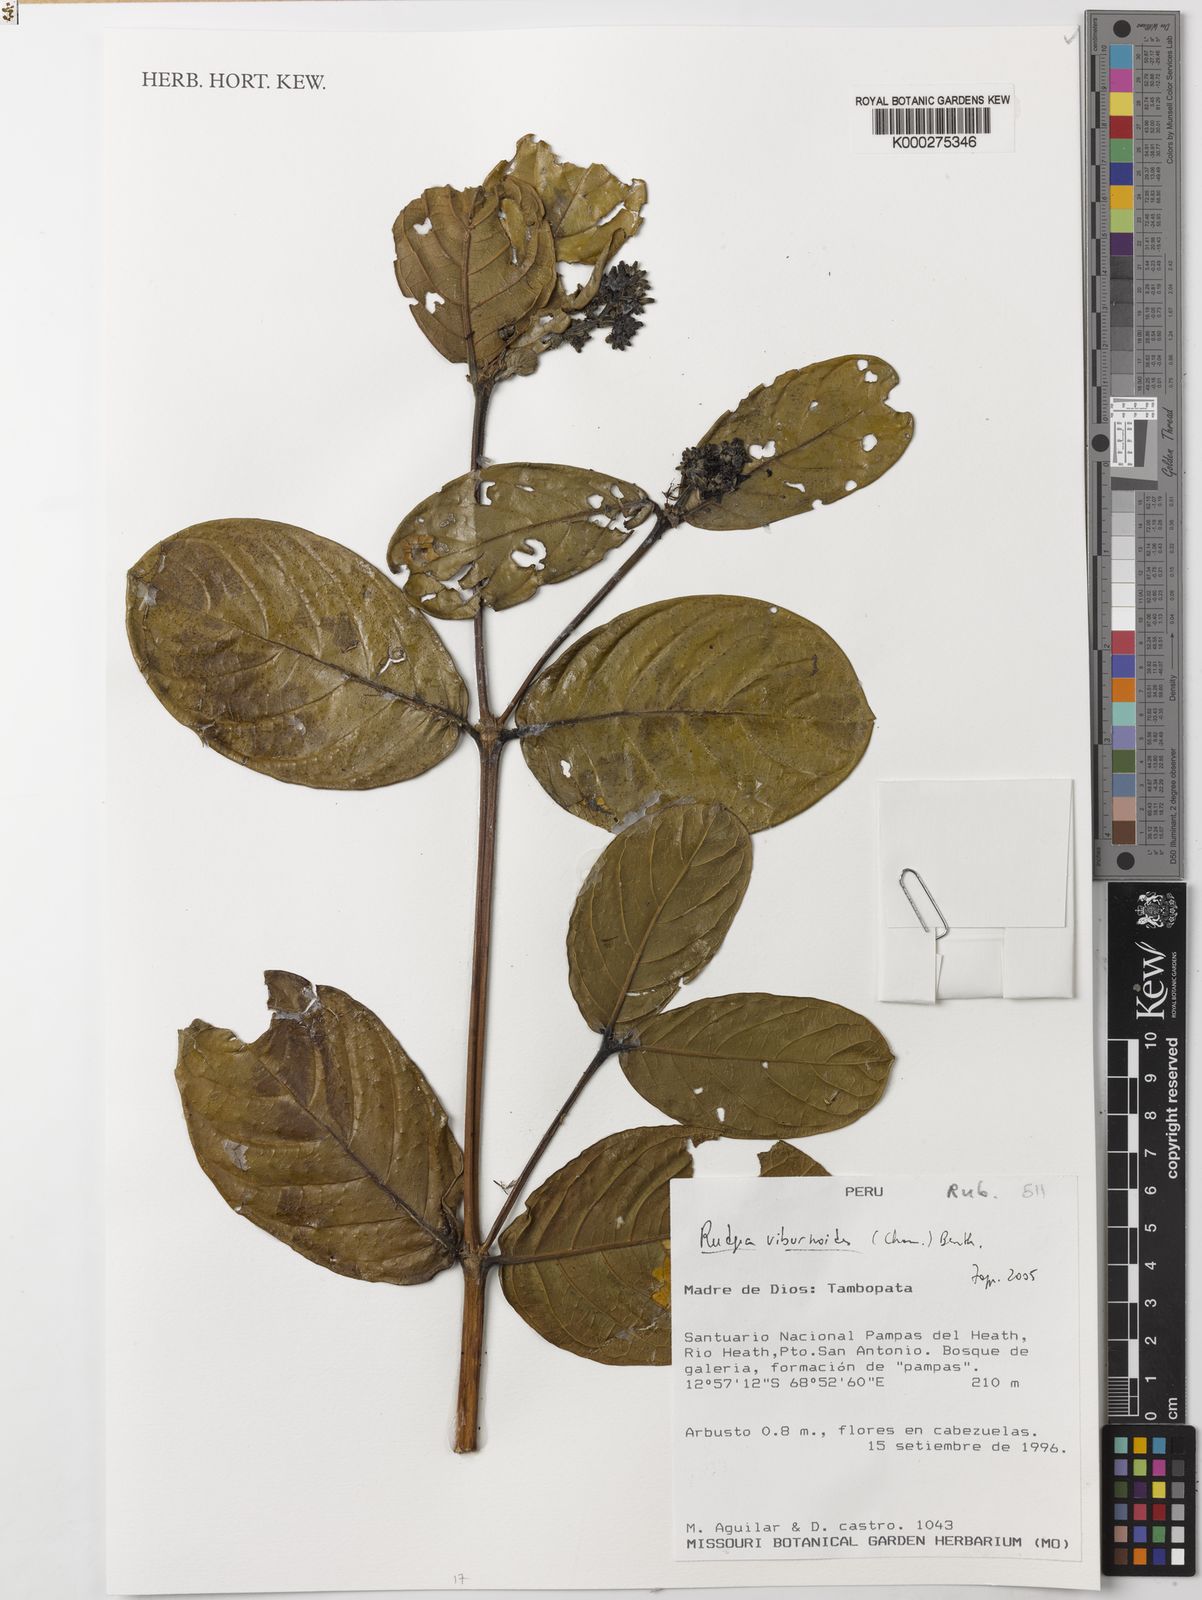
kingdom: Plantae
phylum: Tracheophyta
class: Magnoliopsida
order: Gentianales
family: Rubiaceae
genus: Rudgea
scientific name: Rudgea viburnoides
